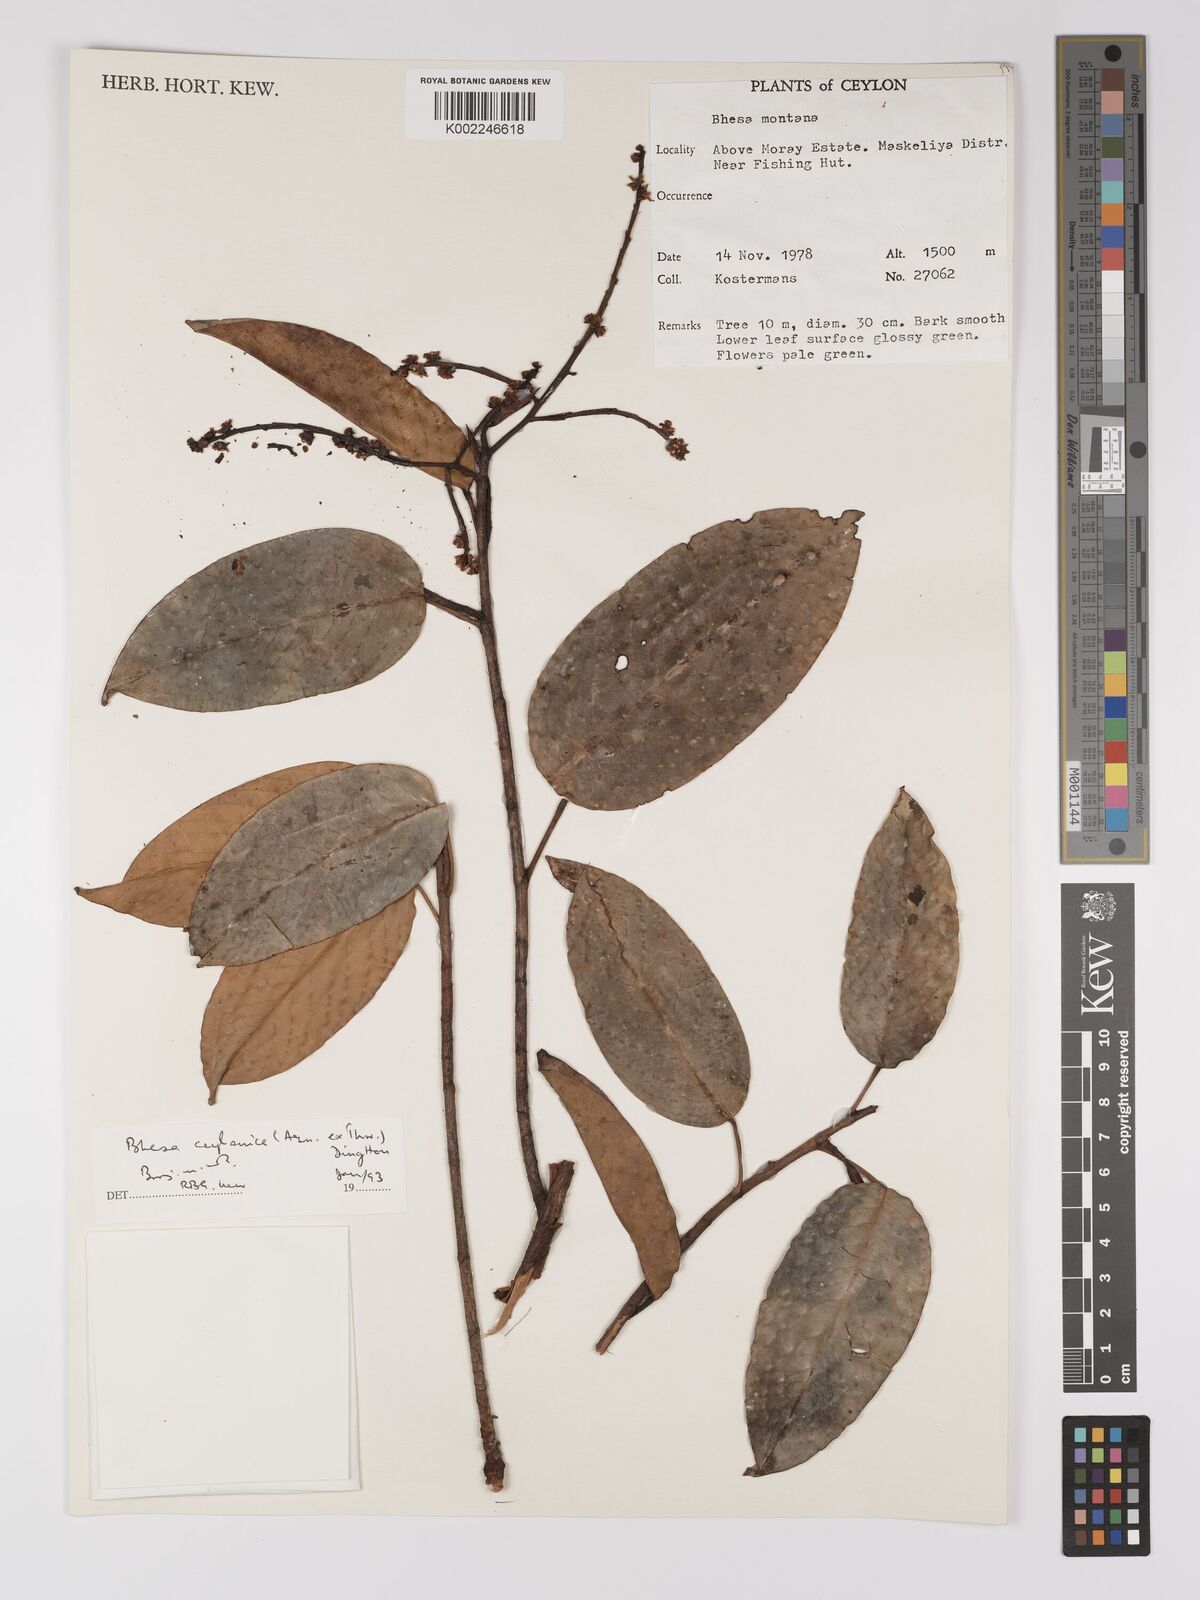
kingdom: Plantae
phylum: Tracheophyta
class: Magnoliopsida
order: Malpighiales
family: Centroplacaceae
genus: Bhesa
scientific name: Bhesa ceylanica
